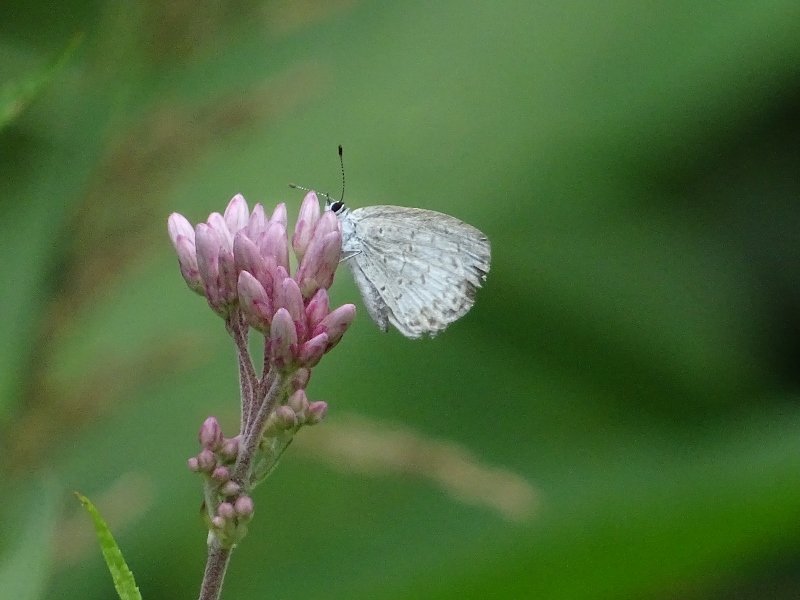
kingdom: Animalia
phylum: Arthropoda
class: Insecta
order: Lepidoptera
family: Lycaenidae
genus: Celastrina
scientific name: Celastrina
